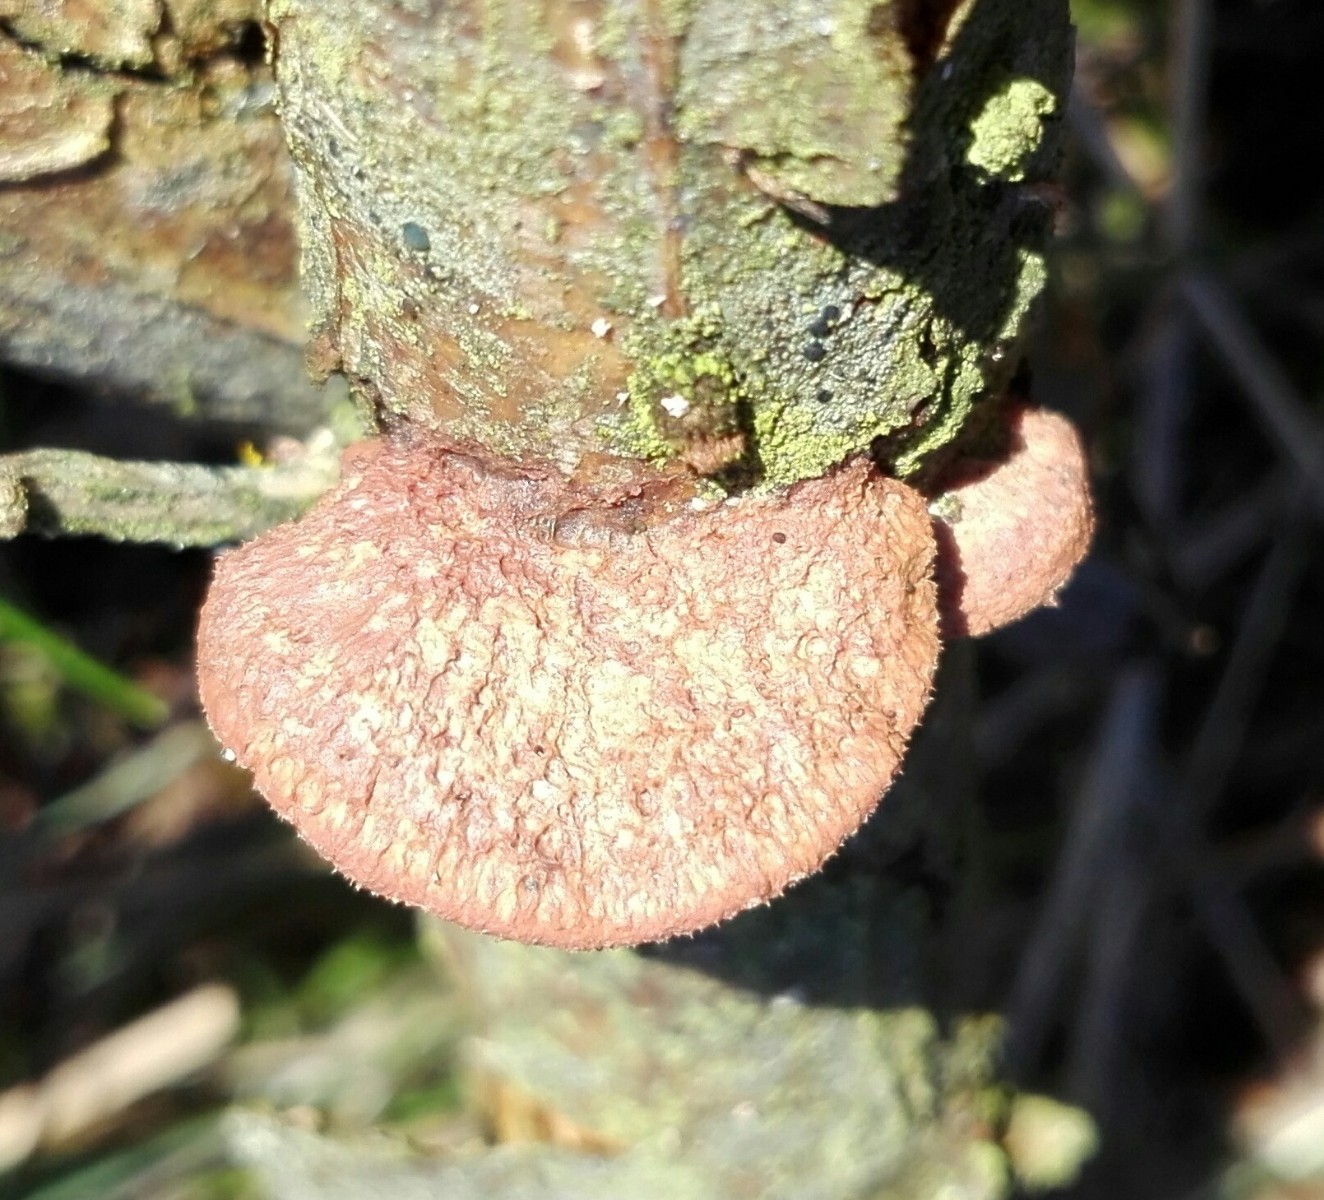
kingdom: Fungi
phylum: Basidiomycota
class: Agaricomycetes
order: Polyporales
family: Phanerochaetaceae
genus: Hapalopilus
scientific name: Hapalopilus rutilans
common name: rødlig okkerporesvamp
